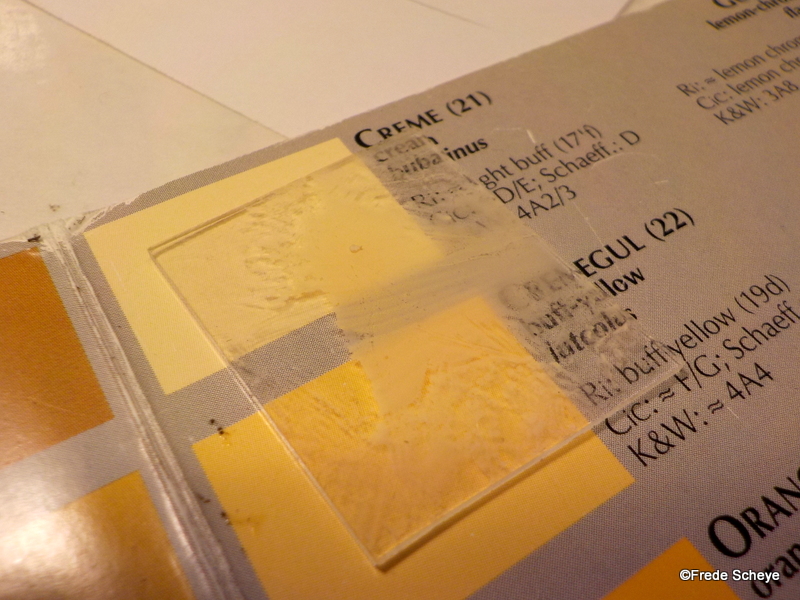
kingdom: Fungi
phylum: Basidiomycota
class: Agaricomycetes
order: Russulales
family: Russulaceae
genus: Russula
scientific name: Russula depallens
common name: falmende skørhat
